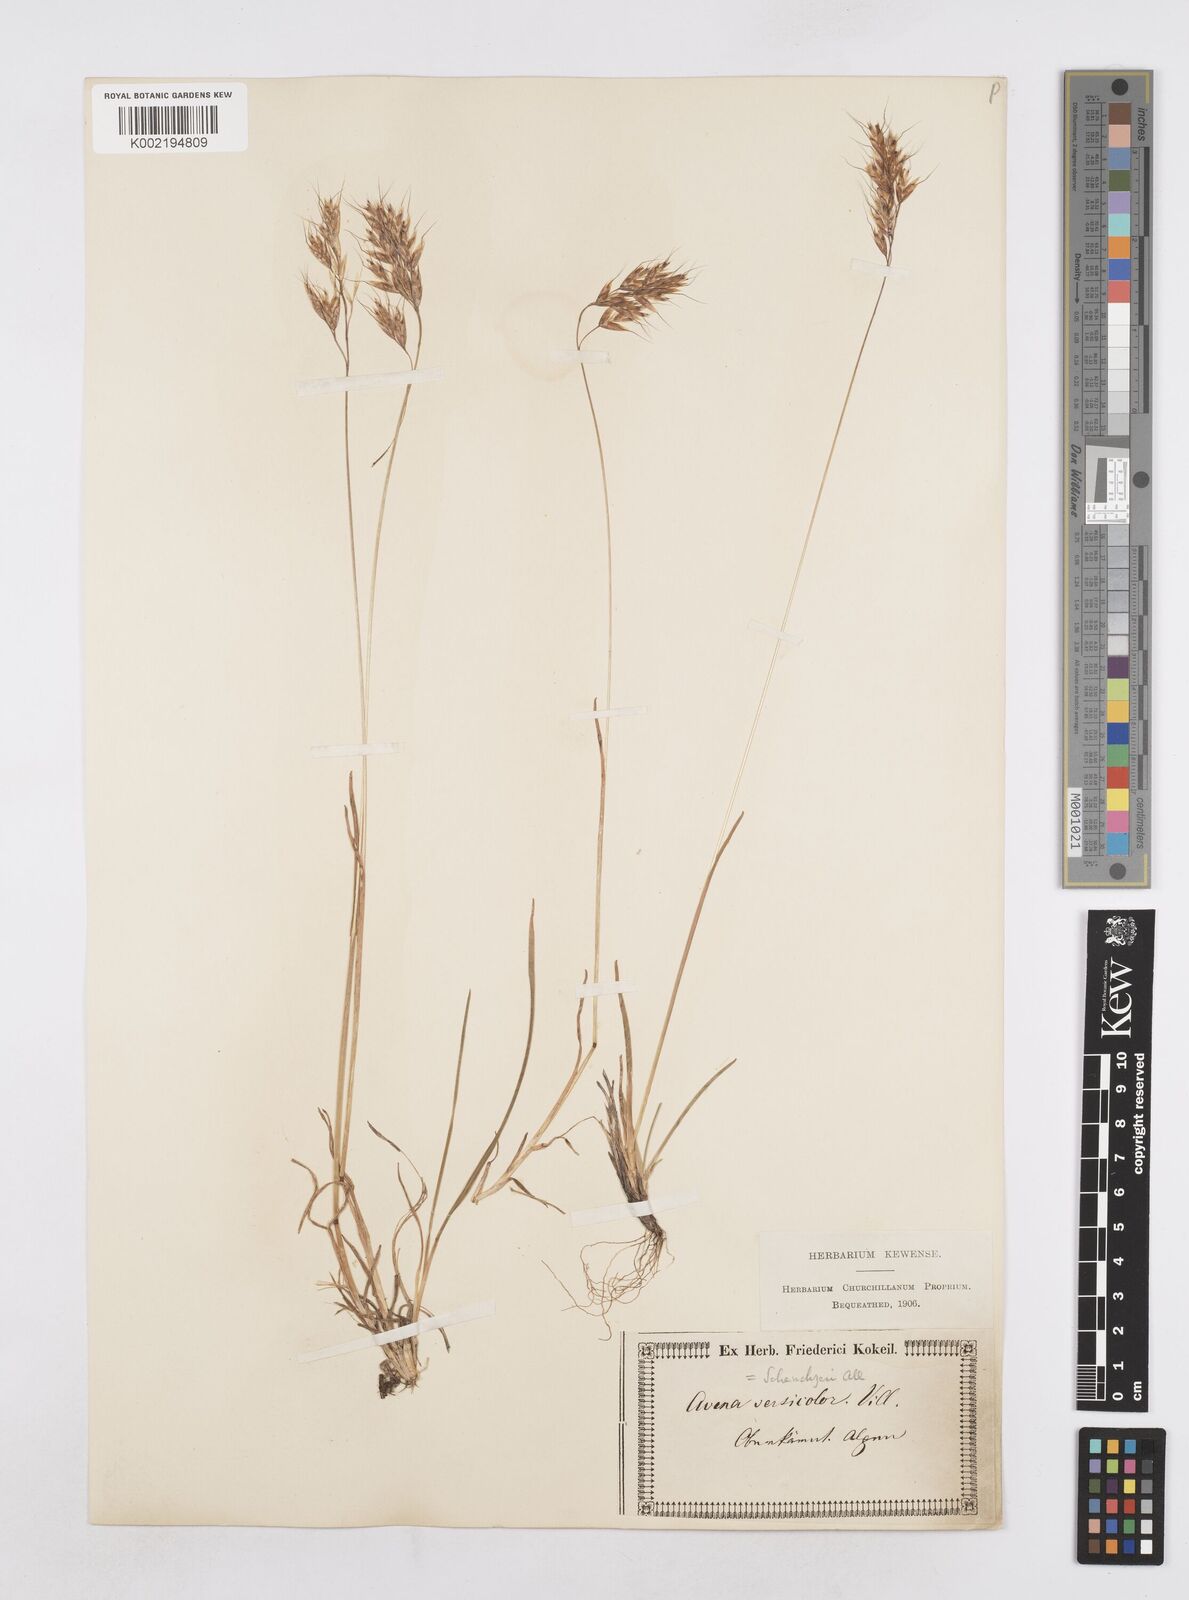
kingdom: Plantae
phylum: Tracheophyta
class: Liliopsida
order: Poales
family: Poaceae
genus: Helictochloa
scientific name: Helictochloa versicolor
